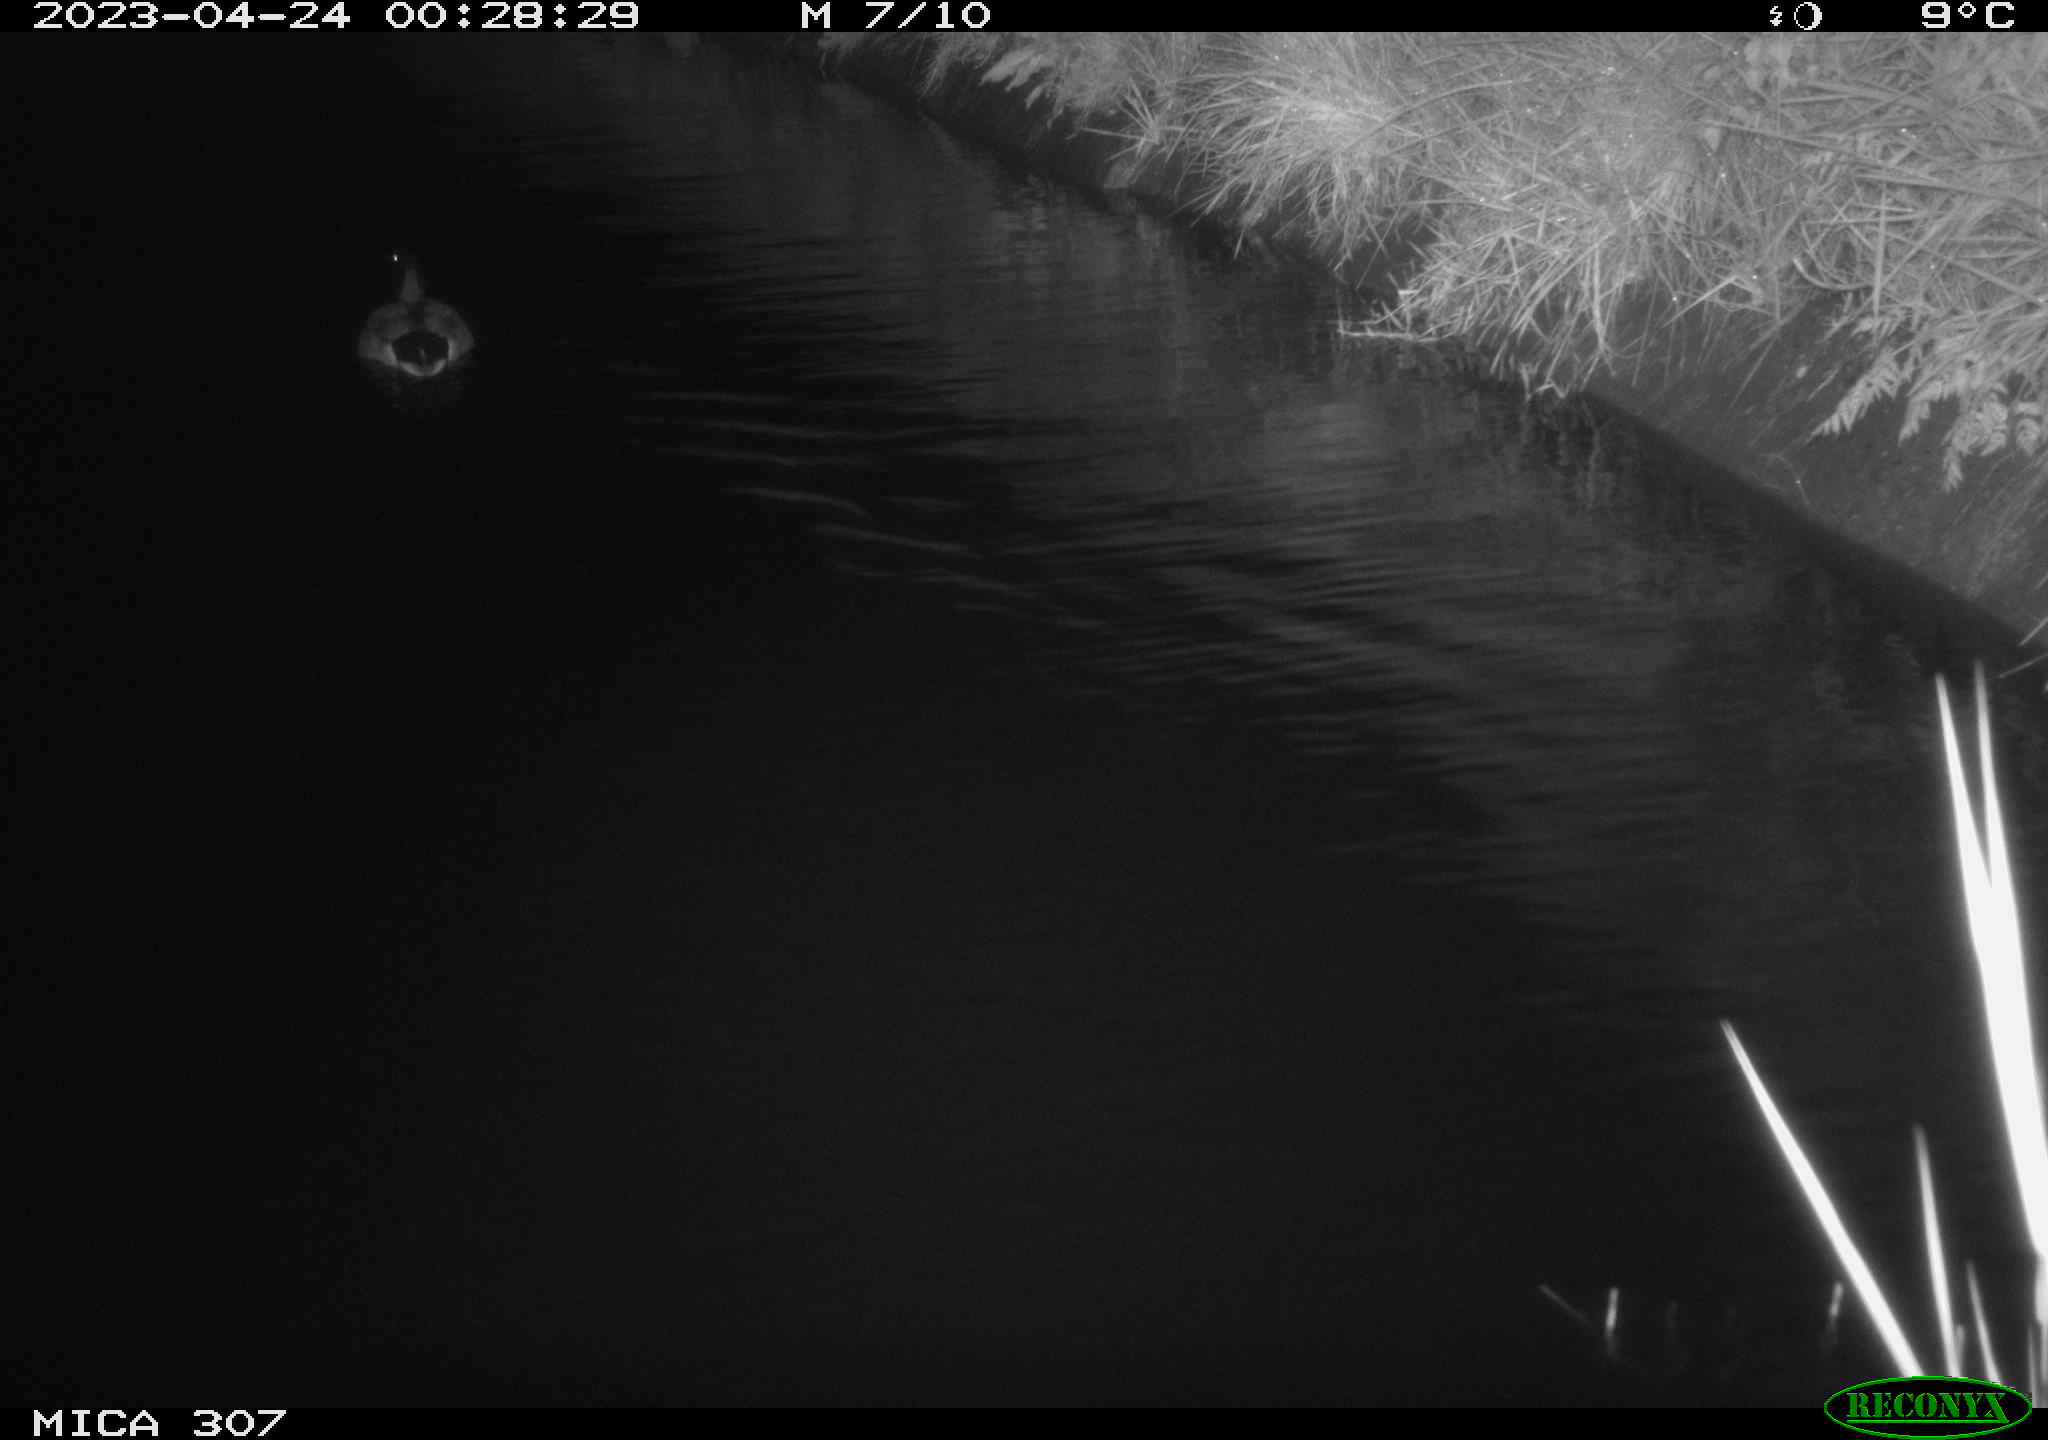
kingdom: Animalia
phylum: Chordata
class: Aves
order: Anseriformes
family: Anatidae
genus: Anas
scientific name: Anas
